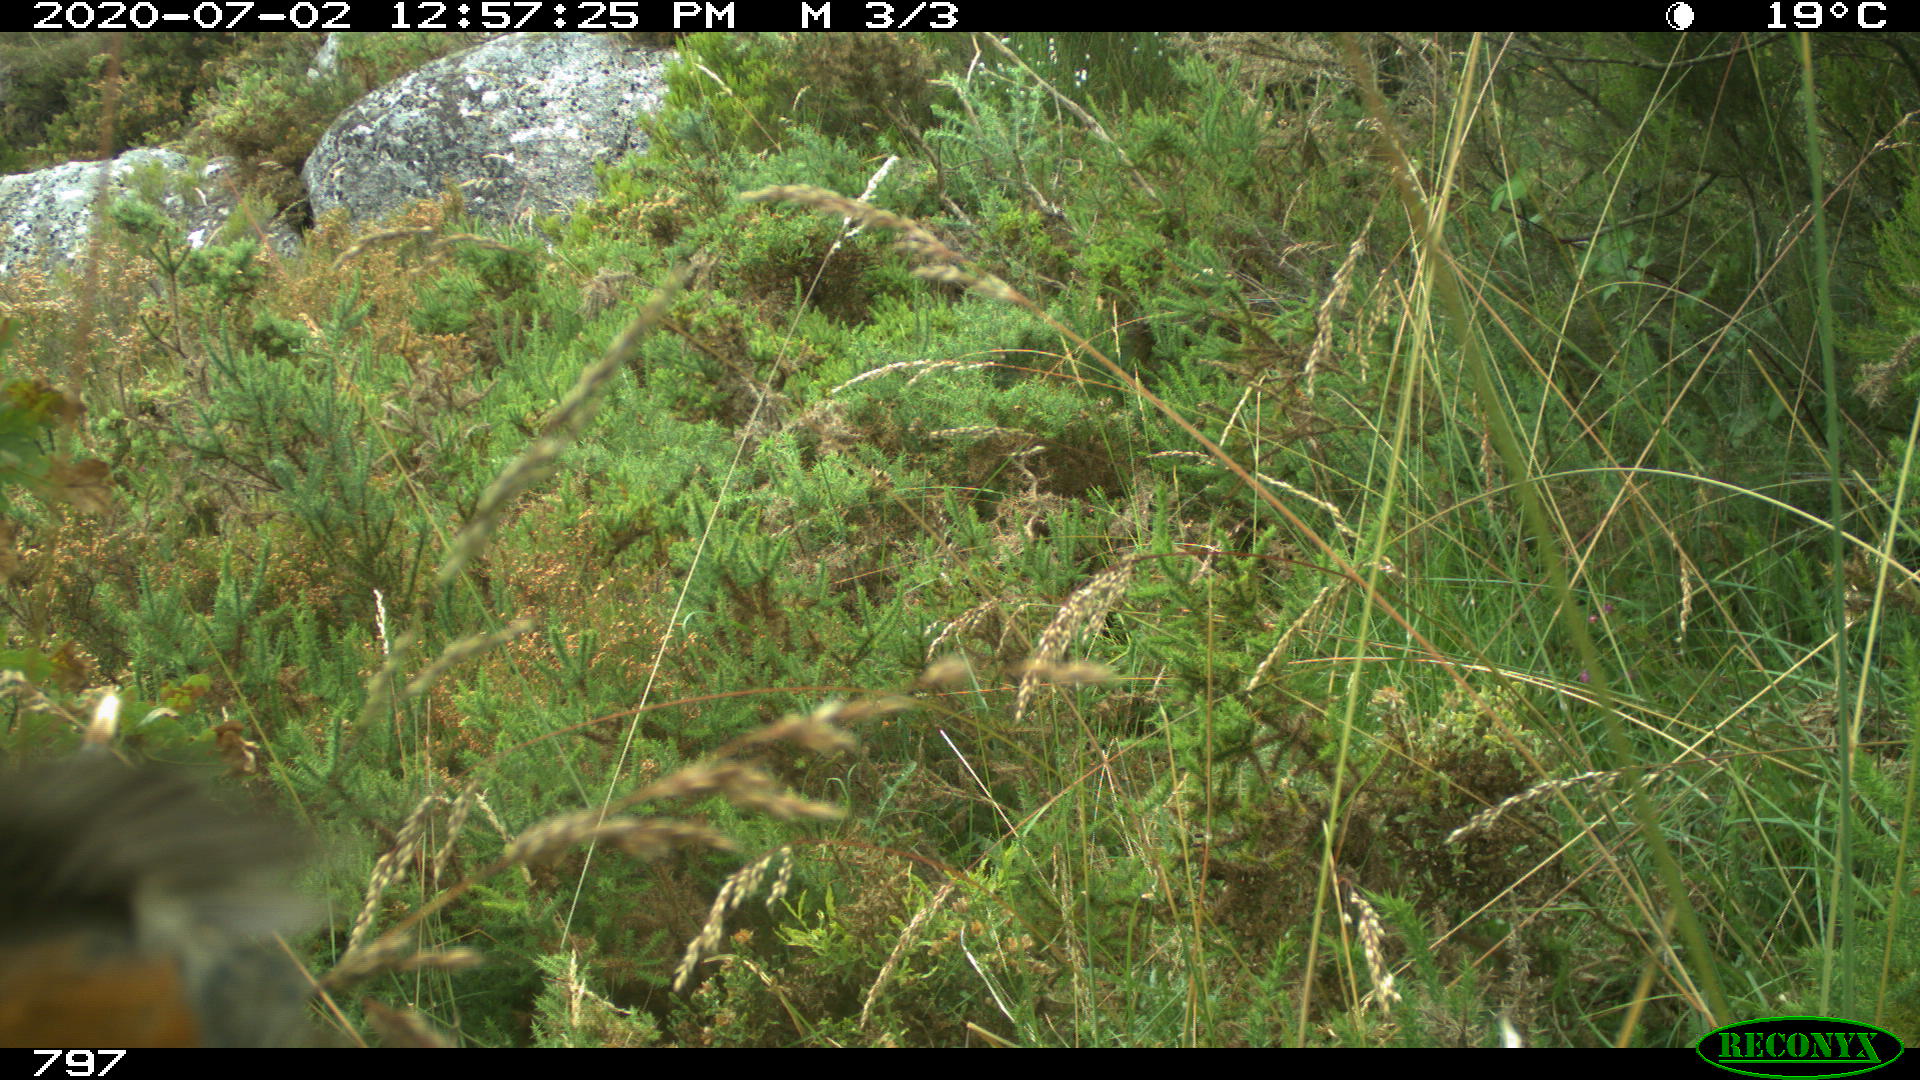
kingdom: Animalia
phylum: Chordata
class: Aves
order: Passeriformes
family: Muscicapidae
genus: Erithacus
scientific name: Erithacus rubecula
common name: European robin
